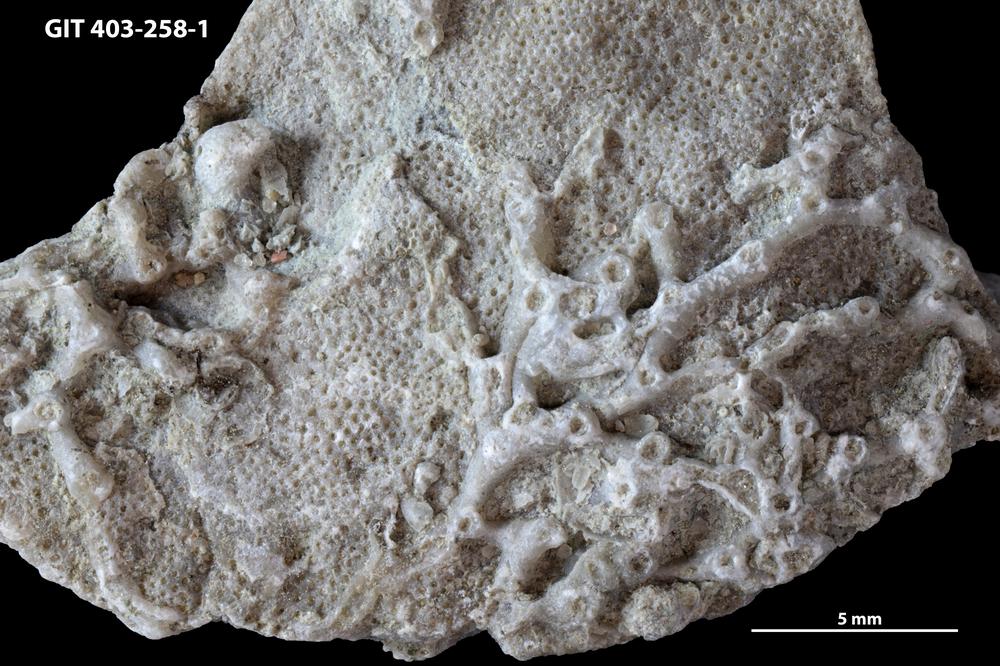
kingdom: Animalia
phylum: Cnidaria
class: Anthozoa
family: Auloporidae
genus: Aulopora
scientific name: Aulopora
